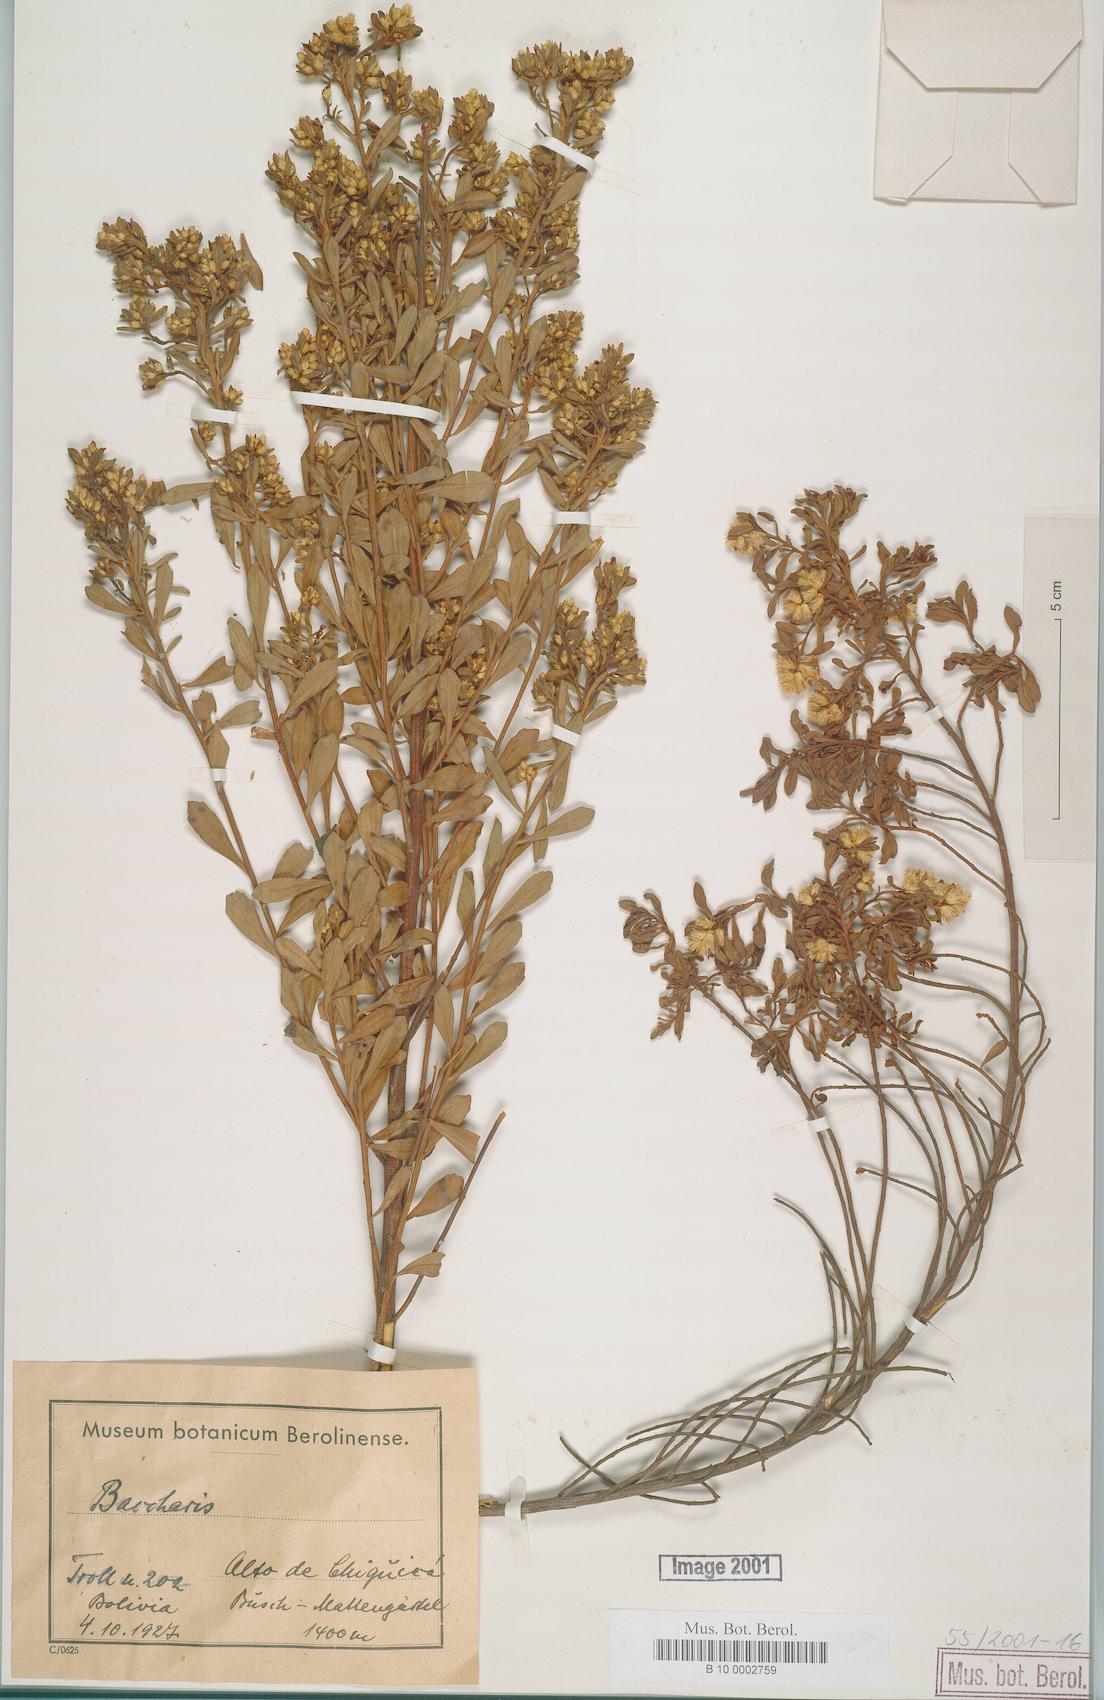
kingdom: Plantae
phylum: Tracheophyta
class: Magnoliopsida
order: Asterales
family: Asteraceae
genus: Baccharis
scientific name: Baccharis
